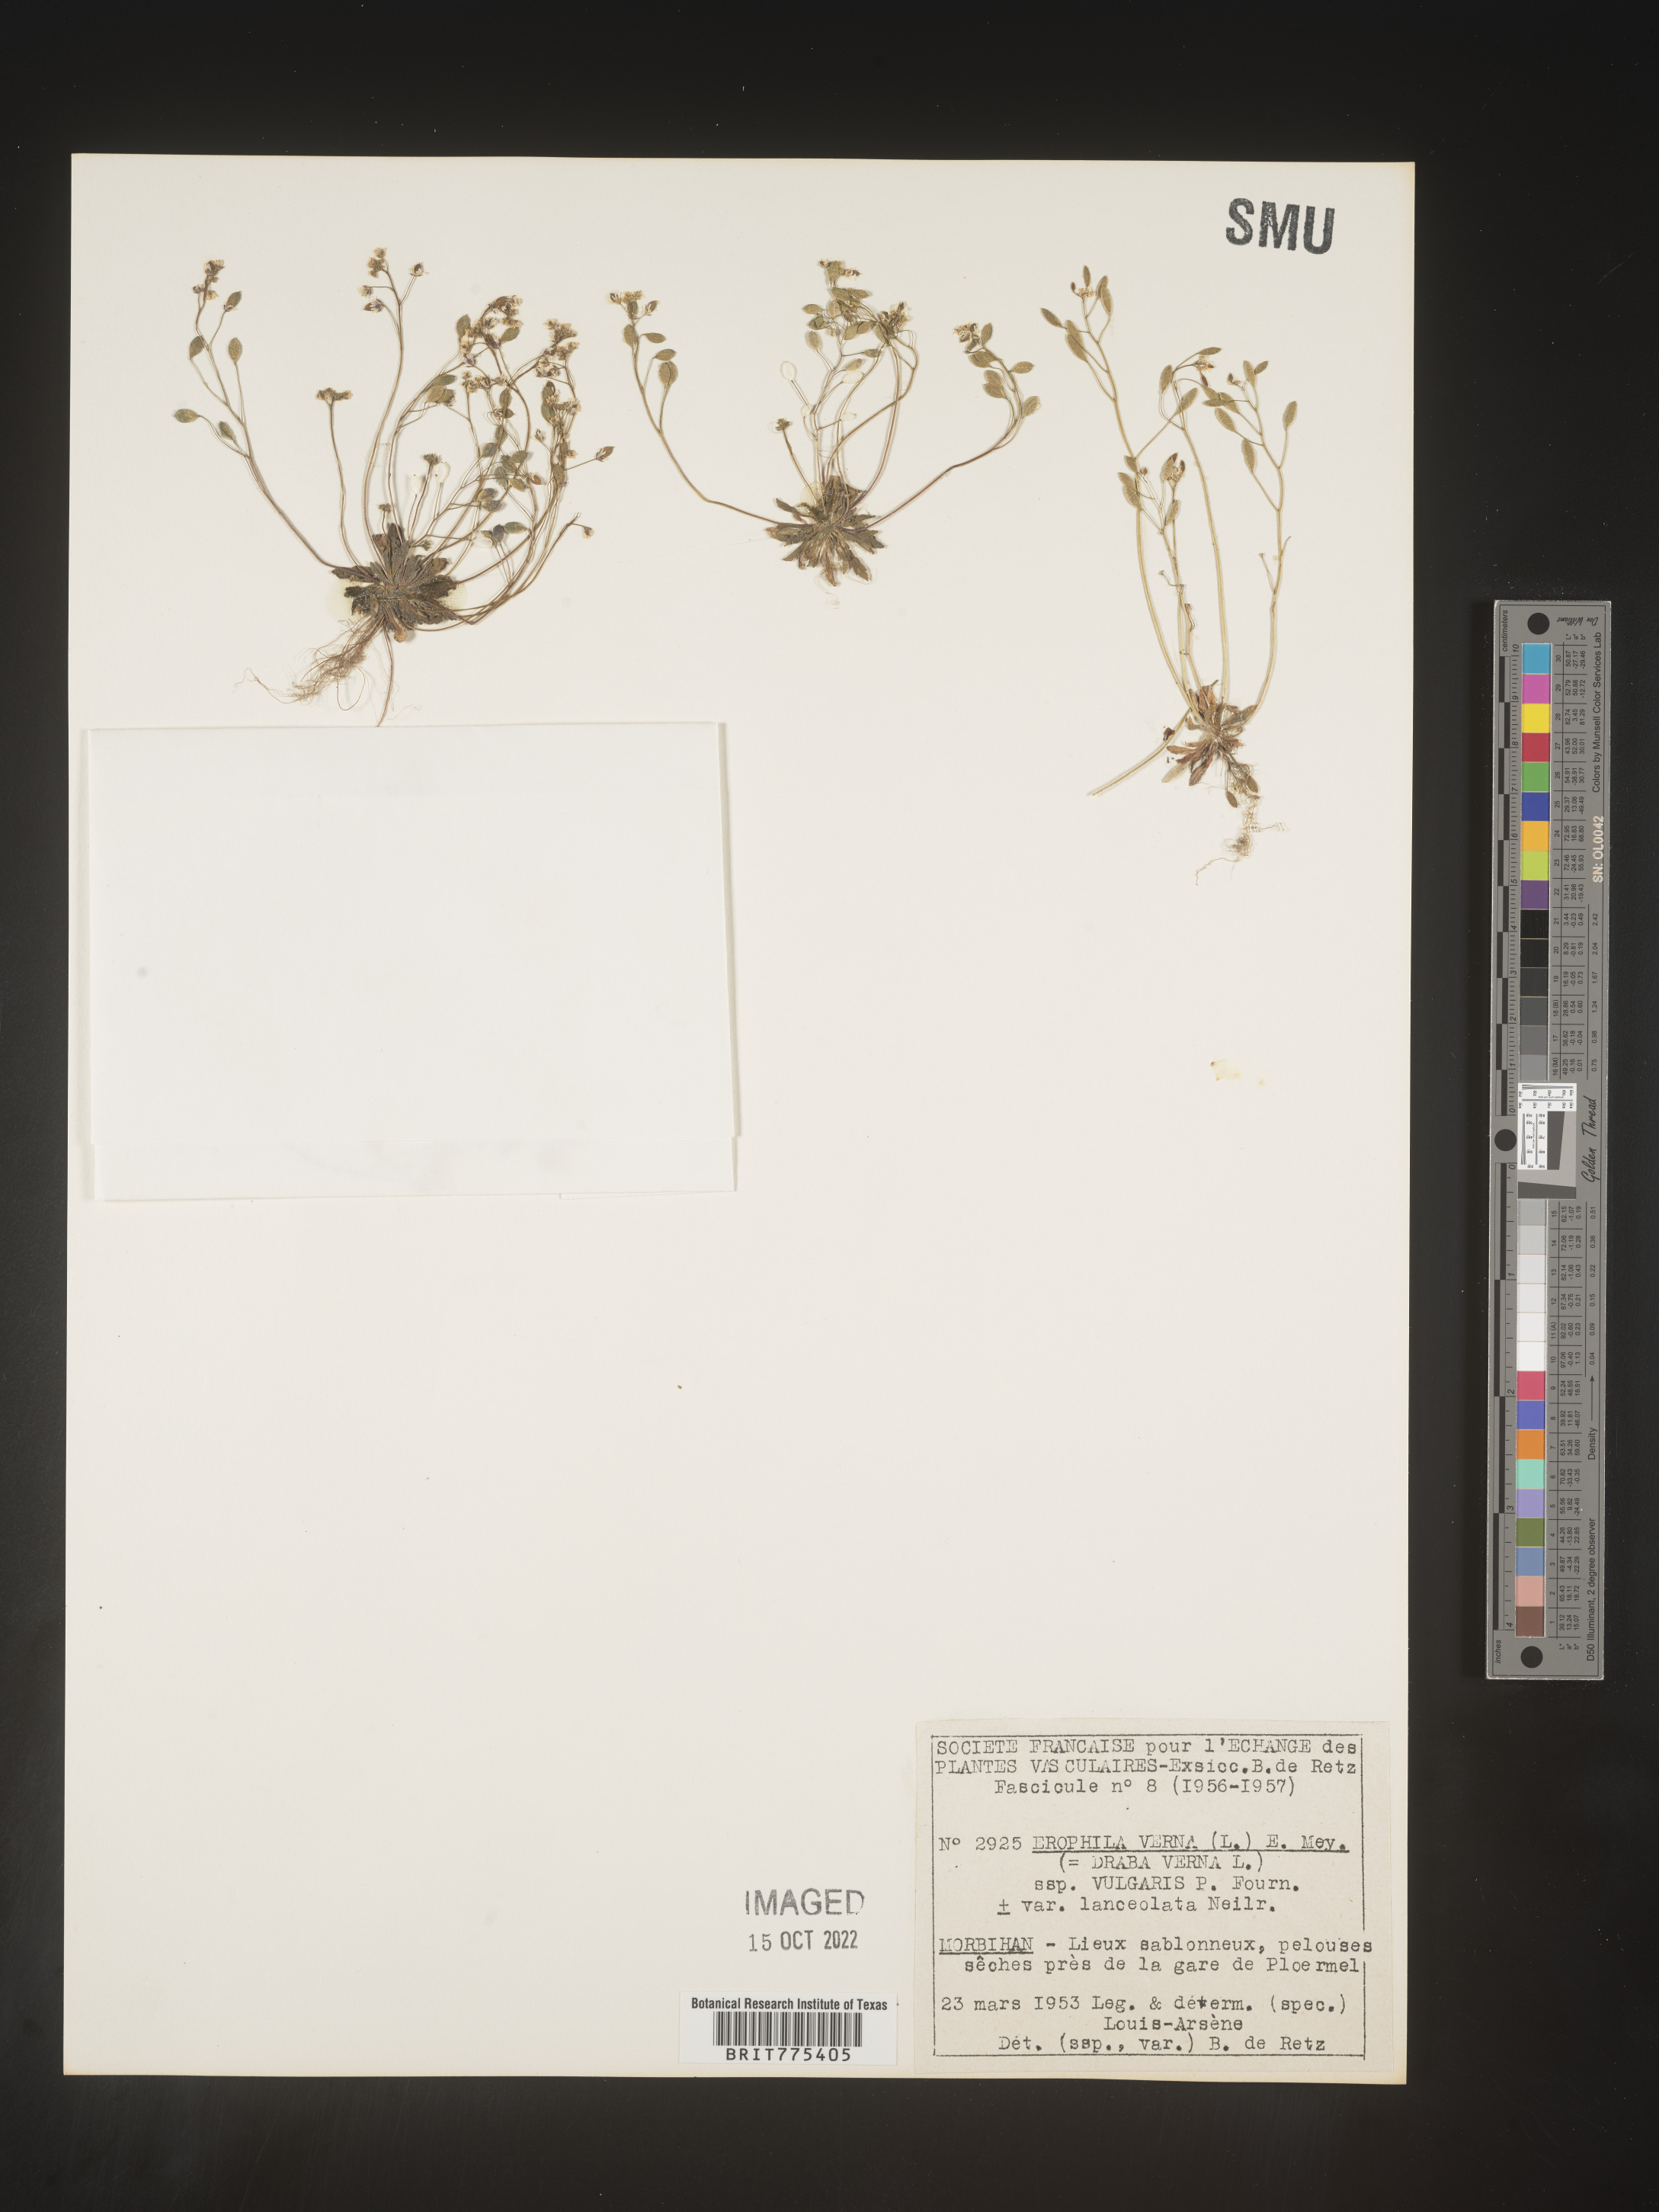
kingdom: Plantae
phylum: Tracheophyta
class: Magnoliopsida
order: Brassicales
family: Brassicaceae
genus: Draba
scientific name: Draba
